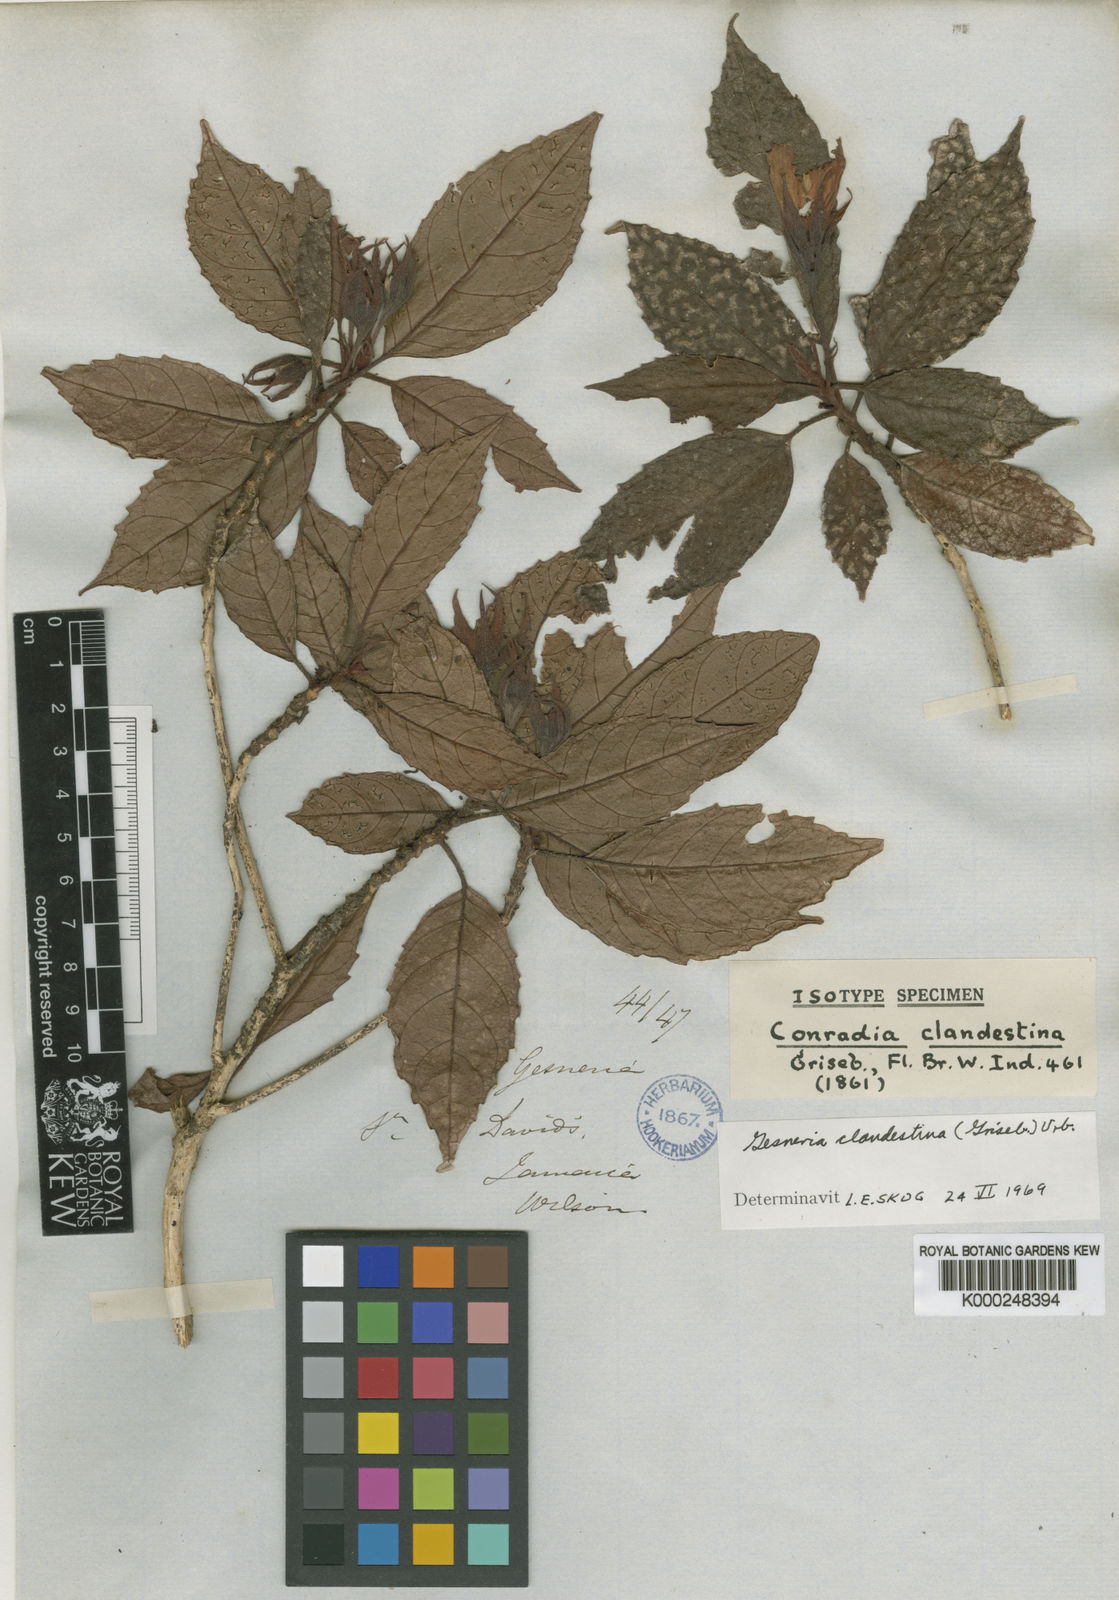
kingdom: Plantae
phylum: Tracheophyta
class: Magnoliopsida
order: Lamiales
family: Gesneriaceae
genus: Gesneria
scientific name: Gesneria clandestina
